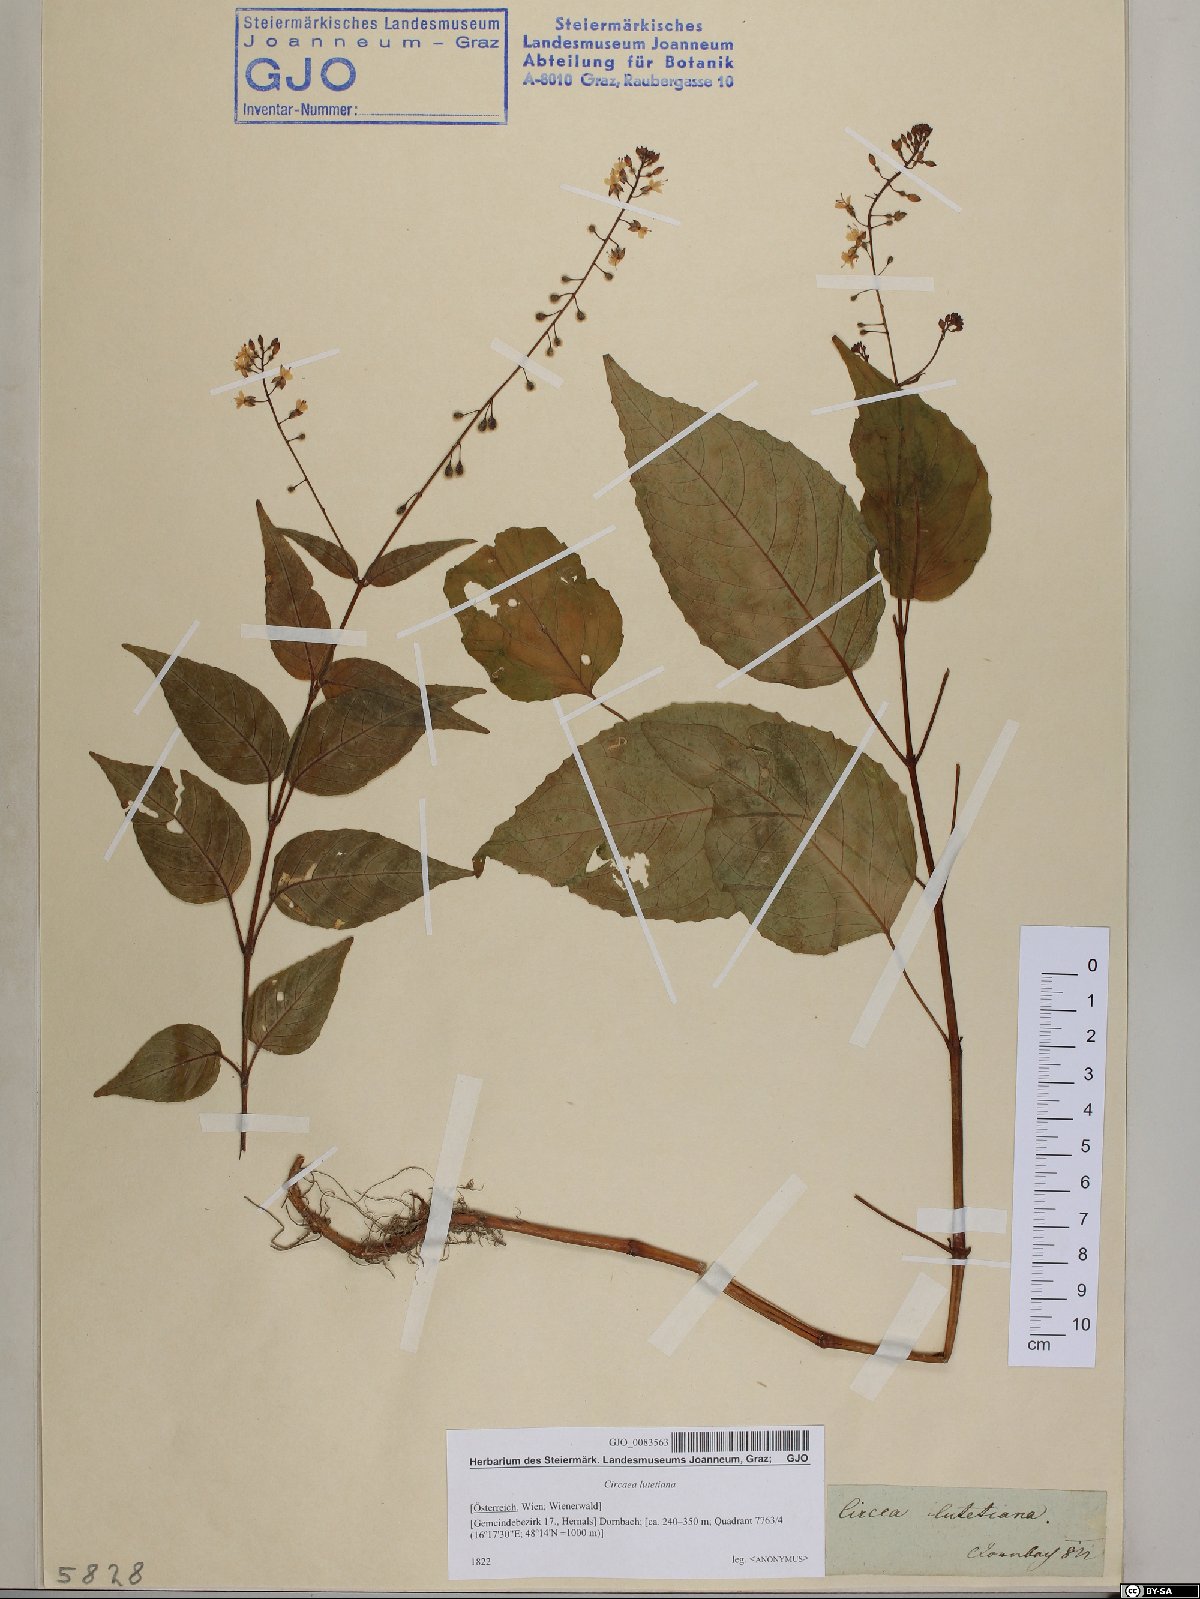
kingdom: Plantae
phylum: Tracheophyta
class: Magnoliopsida
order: Myrtales
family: Onagraceae
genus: Circaea
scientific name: Circaea lutetiana
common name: Enchanter's-nightshade
